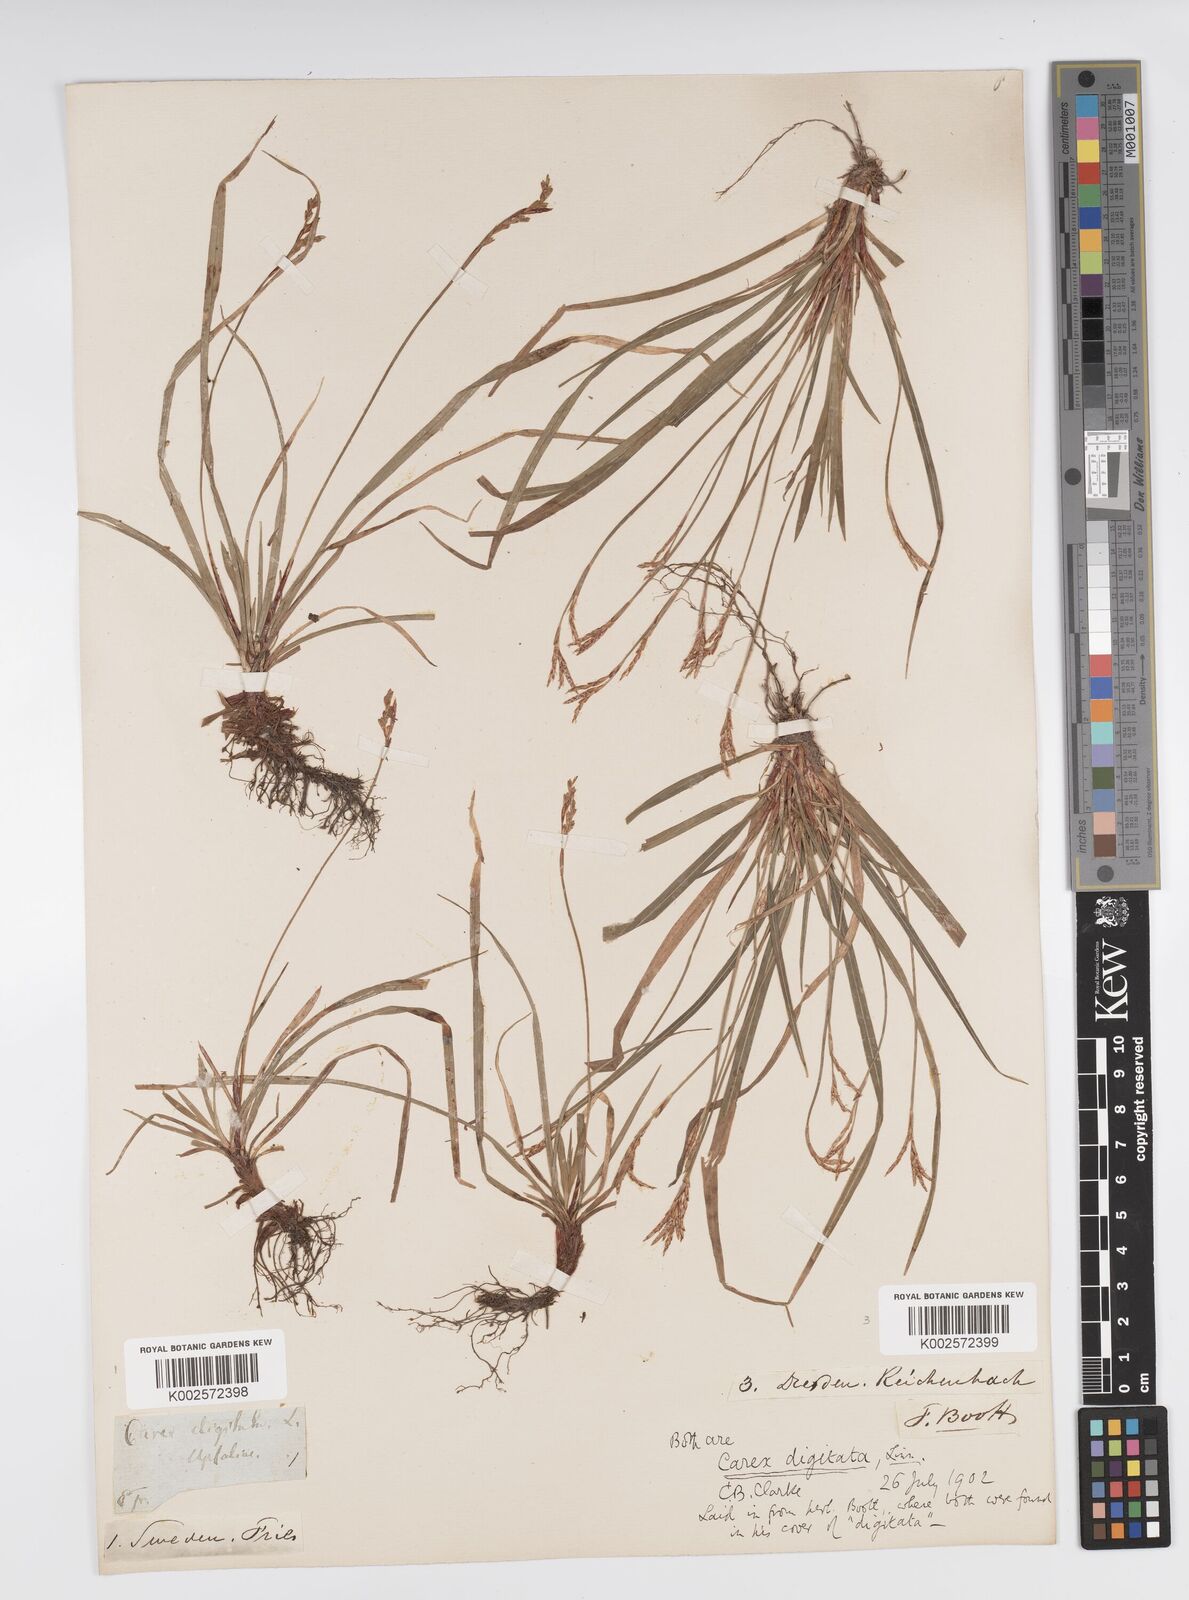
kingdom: Plantae
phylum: Tracheophyta
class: Liliopsida
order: Poales
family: Cyperaceae
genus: Carex
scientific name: Carex digitata
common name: Fingered sedge
